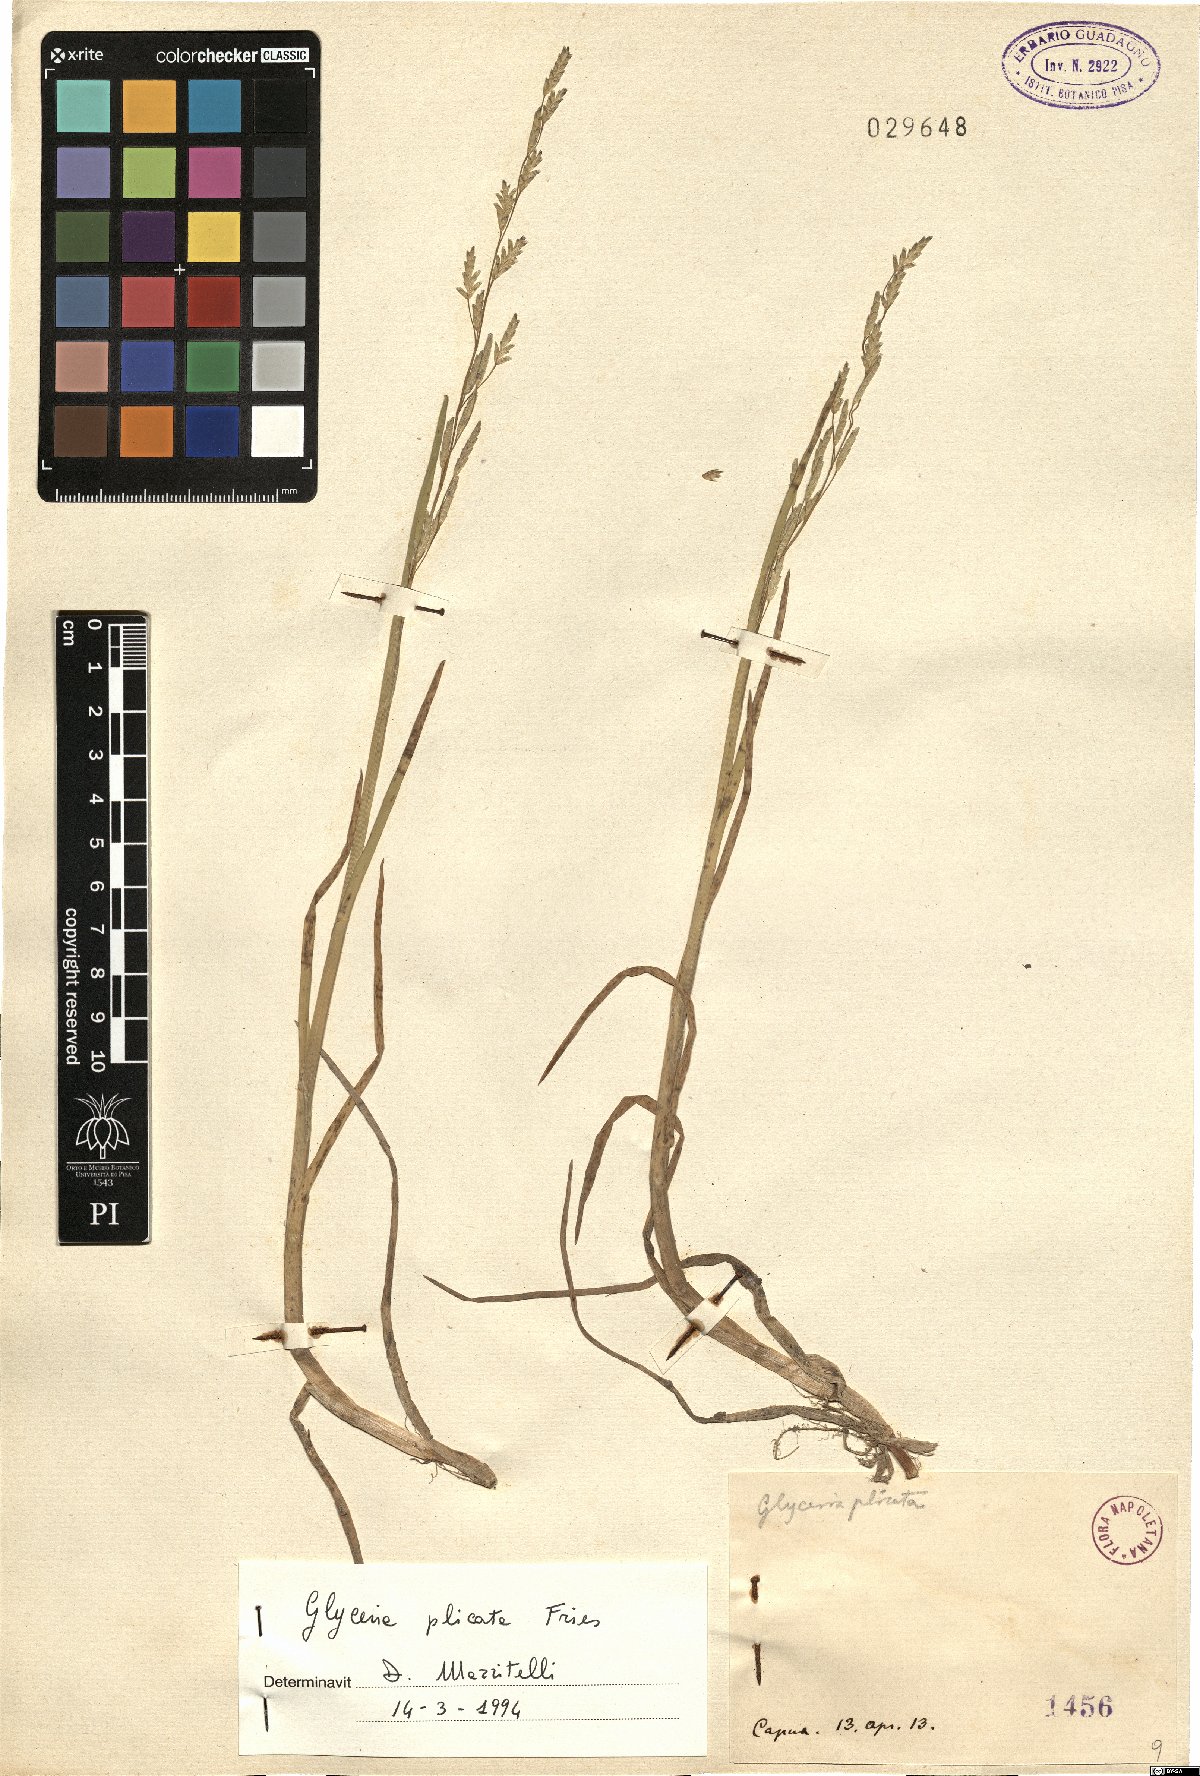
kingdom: Plantae
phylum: Tracheophyta
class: Liliopsida
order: Poales
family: Poaceae
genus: Glyceria
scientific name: Glyceria notata
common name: Plicate sweet-grass
